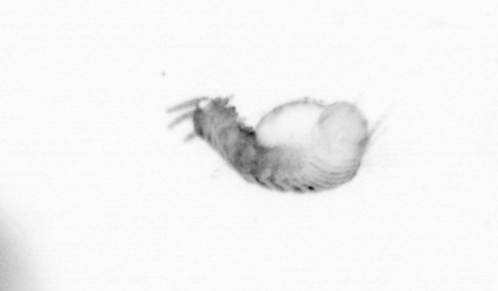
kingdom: Animalia
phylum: Annelida
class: Polychaeta
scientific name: Polychaeta
